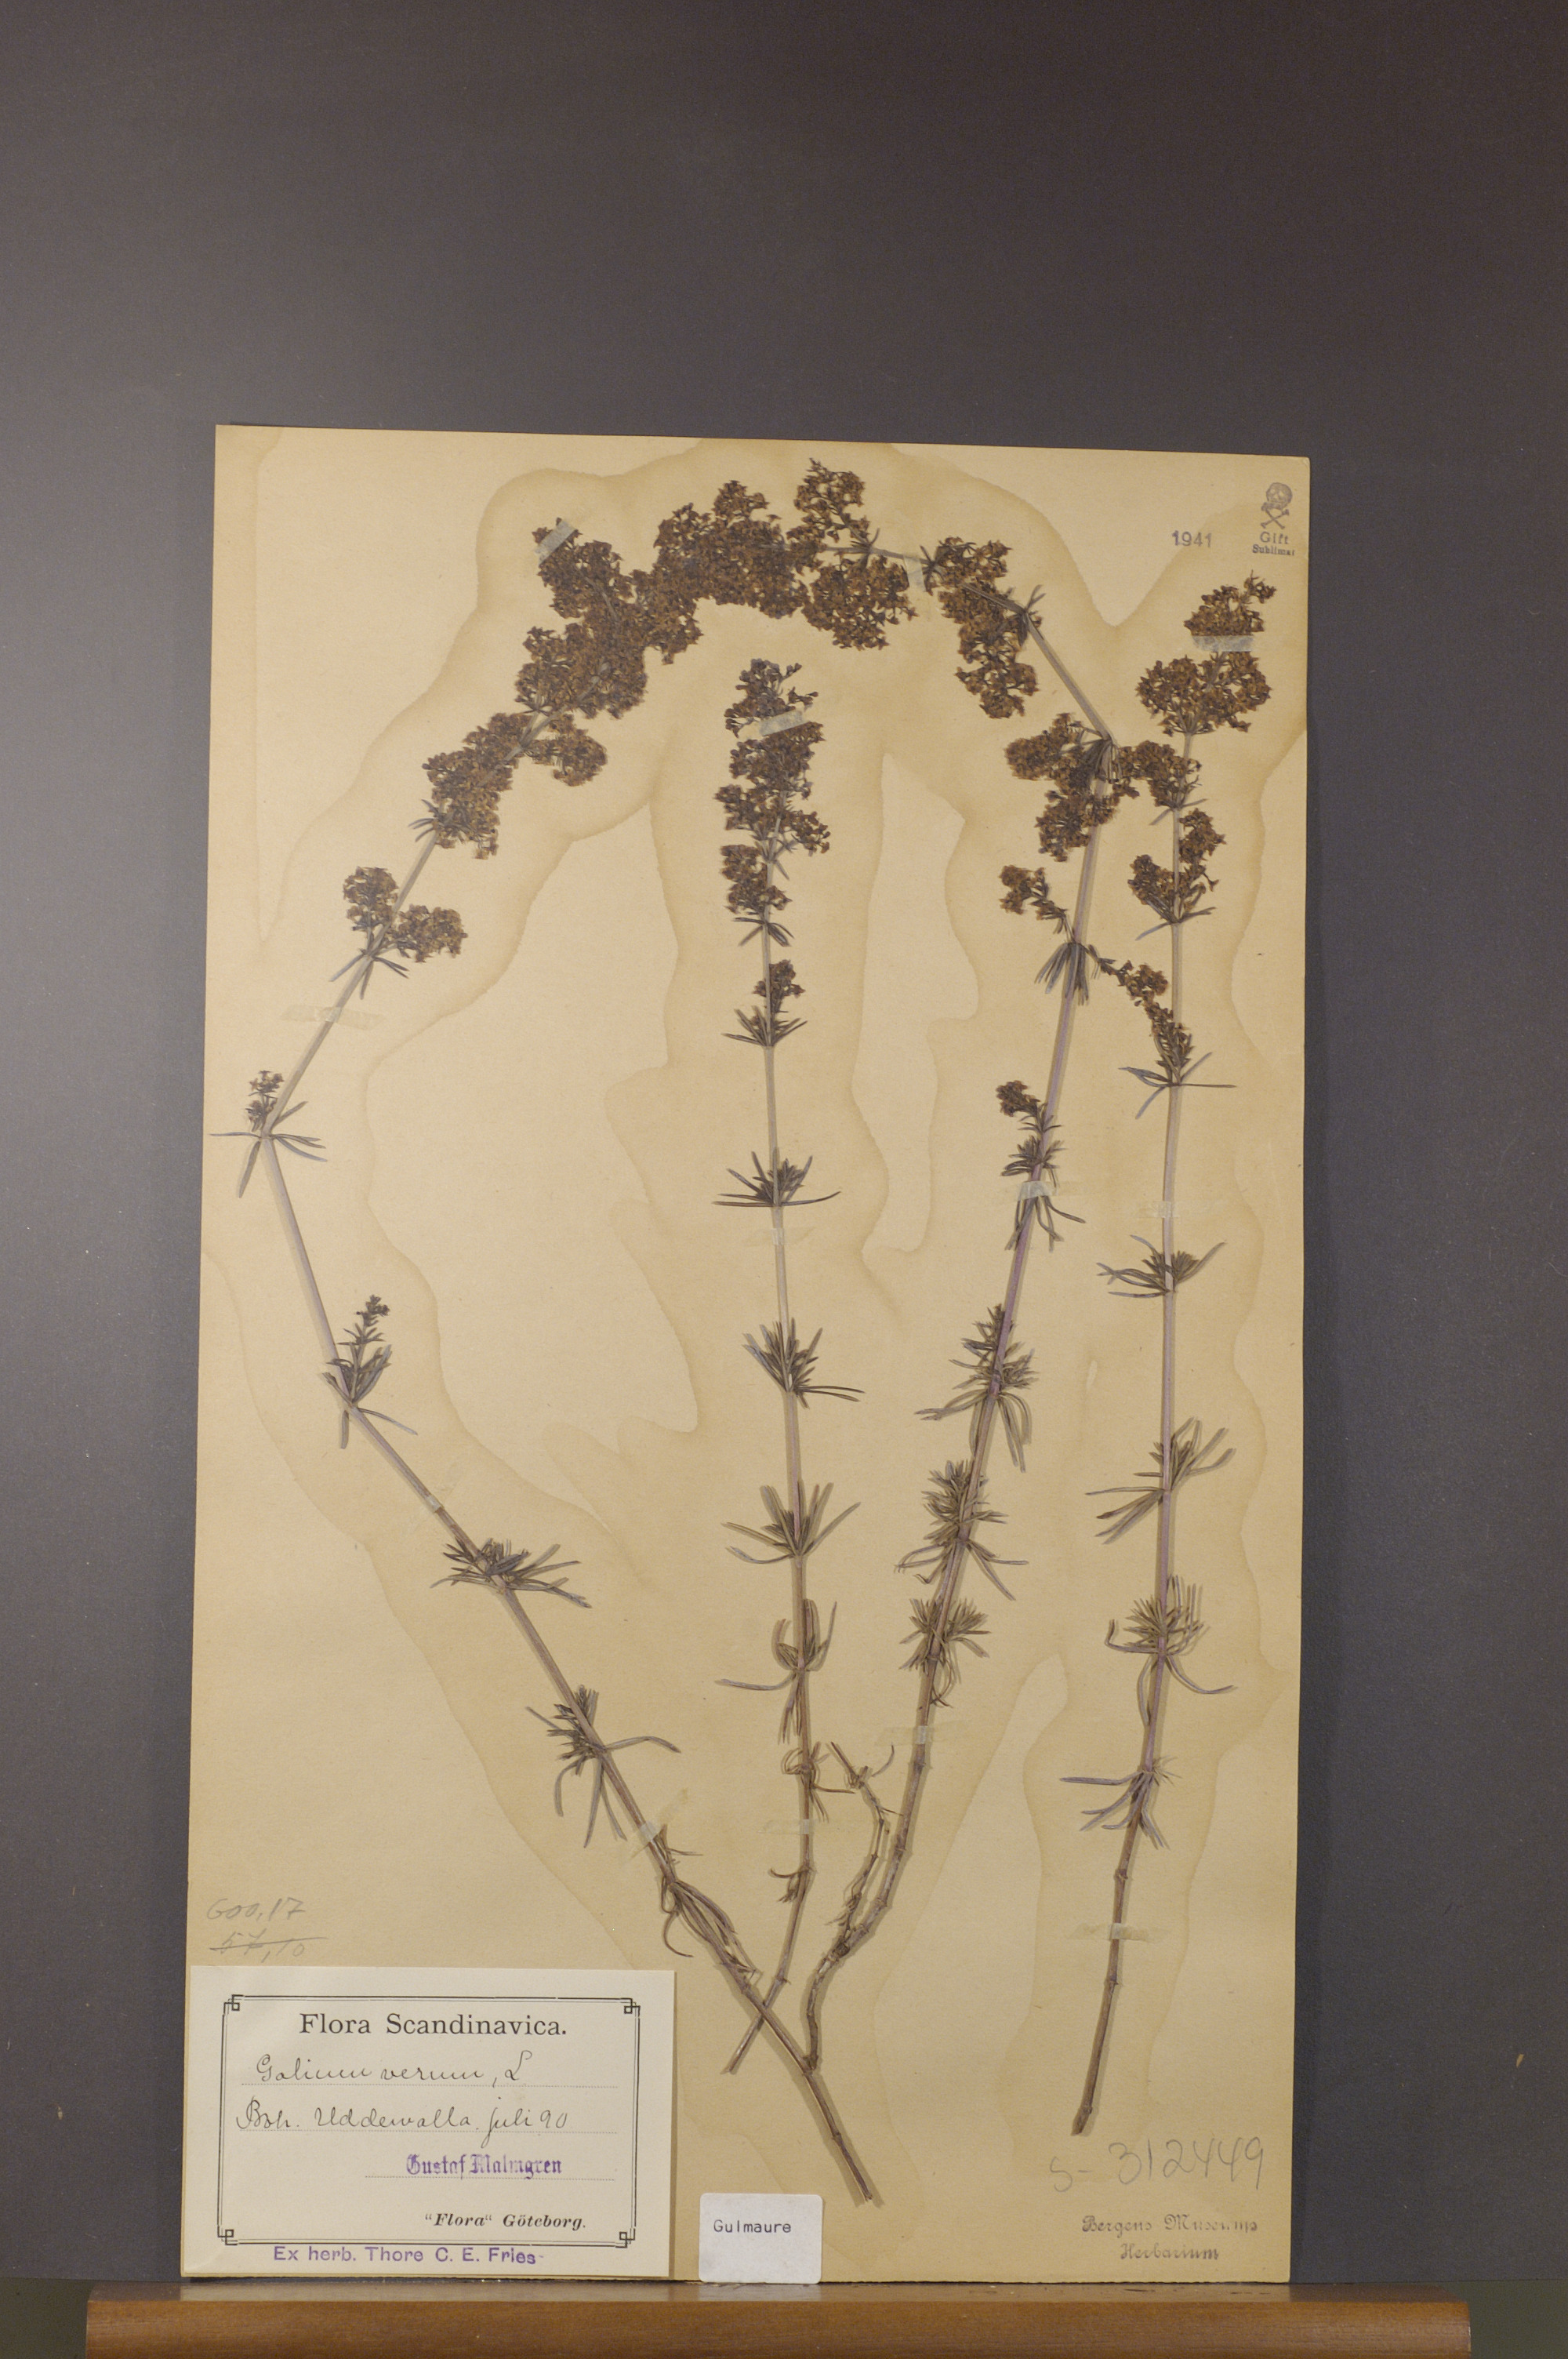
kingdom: Plantae
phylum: Tracheophyta
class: Magnoliopsida
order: Gentianales
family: Rubiaceae
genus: Galium
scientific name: Galium verum
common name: Lady's bedstraw
